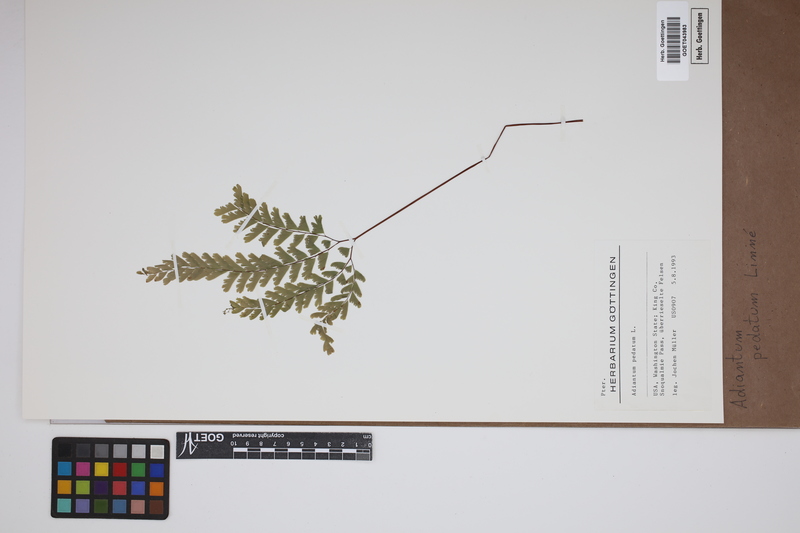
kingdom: Plantae
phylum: Tracheophyta
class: Polypodiopsida
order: Polypodiales
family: Pteridaceae
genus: Adiantum
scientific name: Adiantum pedatum
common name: Five-finger fern
